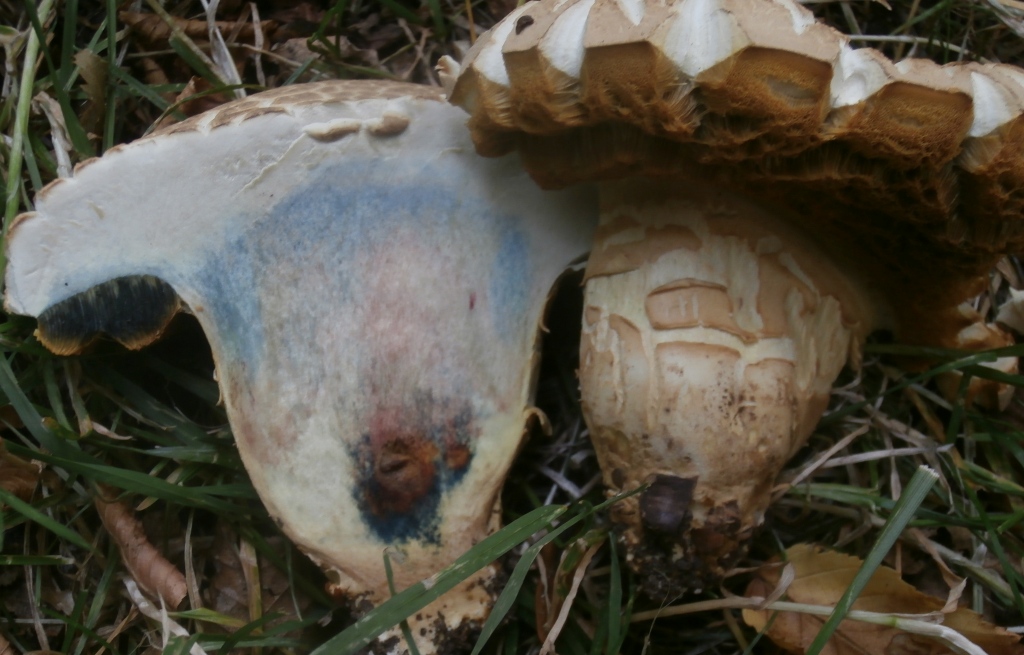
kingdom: Fungi
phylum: Basidiomycota
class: Agaricomycetes
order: Boletales
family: Boletaceae
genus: Caloboletus
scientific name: Caloboletus radicans
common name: rod-rørhat
